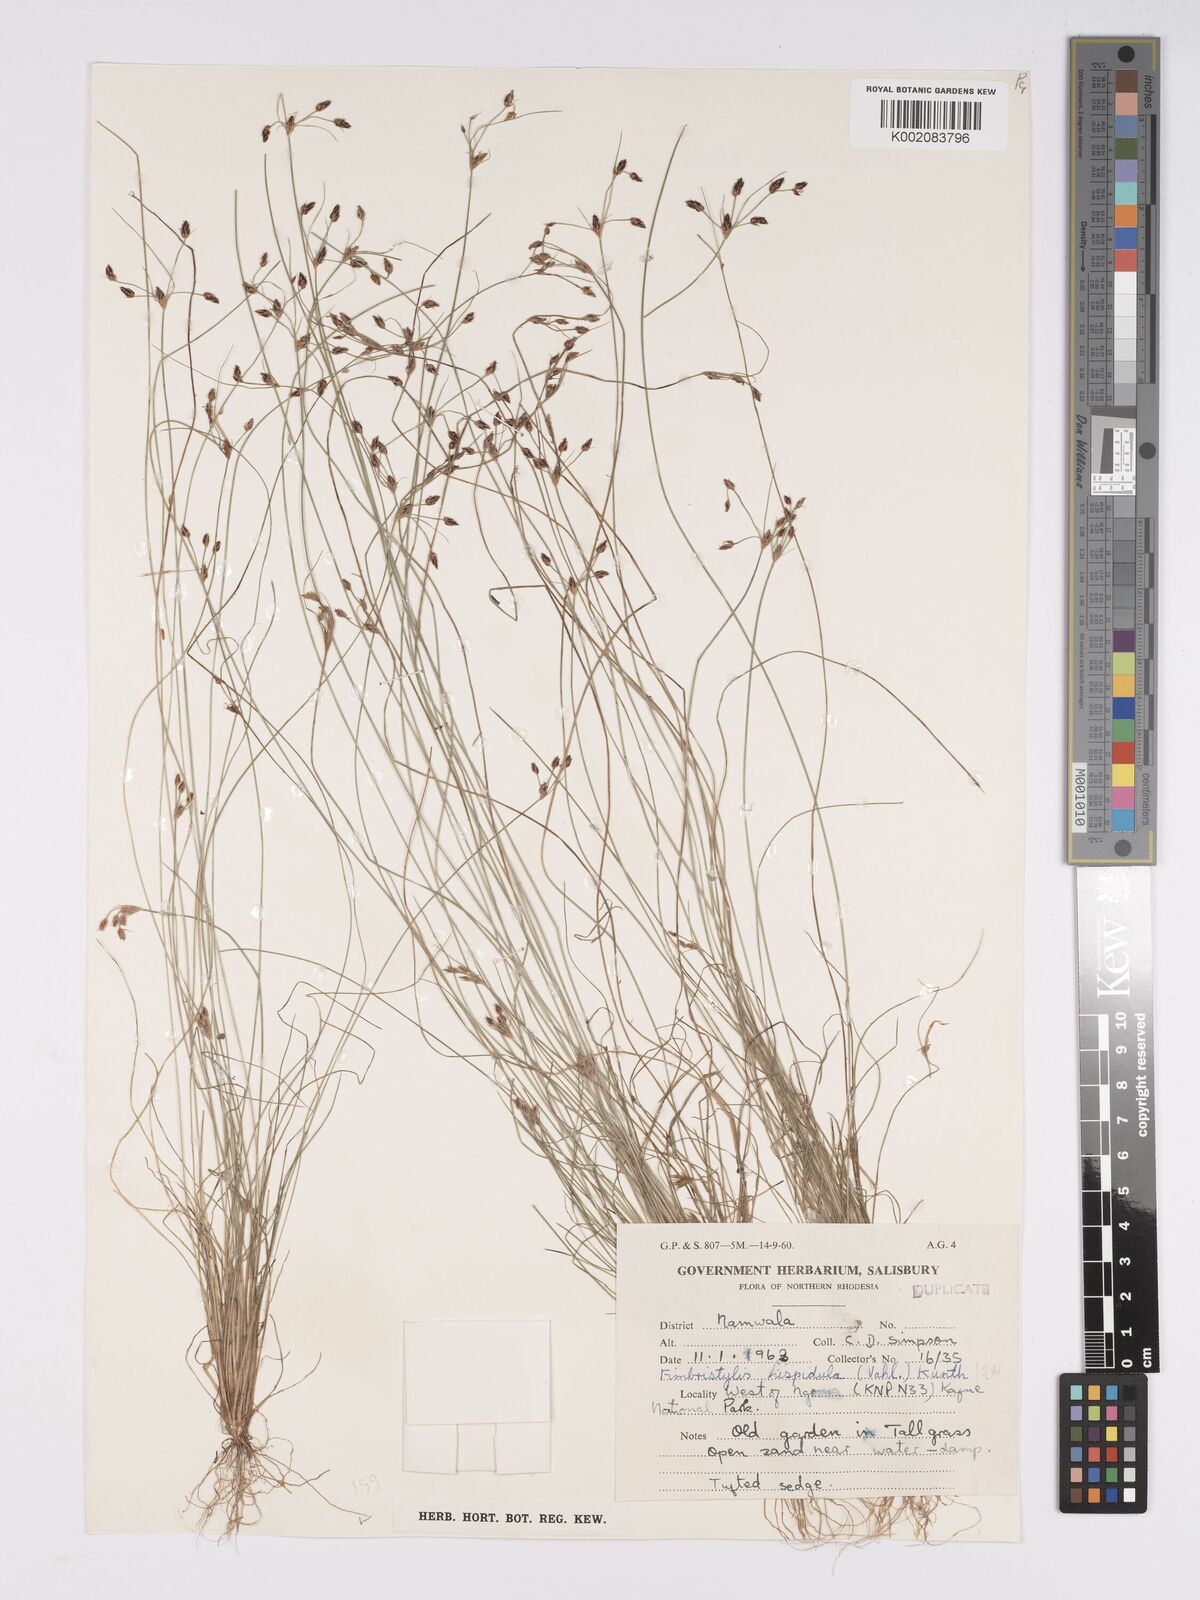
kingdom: Plantae
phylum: Tracheophyta
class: Liliopsida
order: Poales
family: Cyperaceae
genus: Bulbostylis
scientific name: Bulbostylis hispidula
